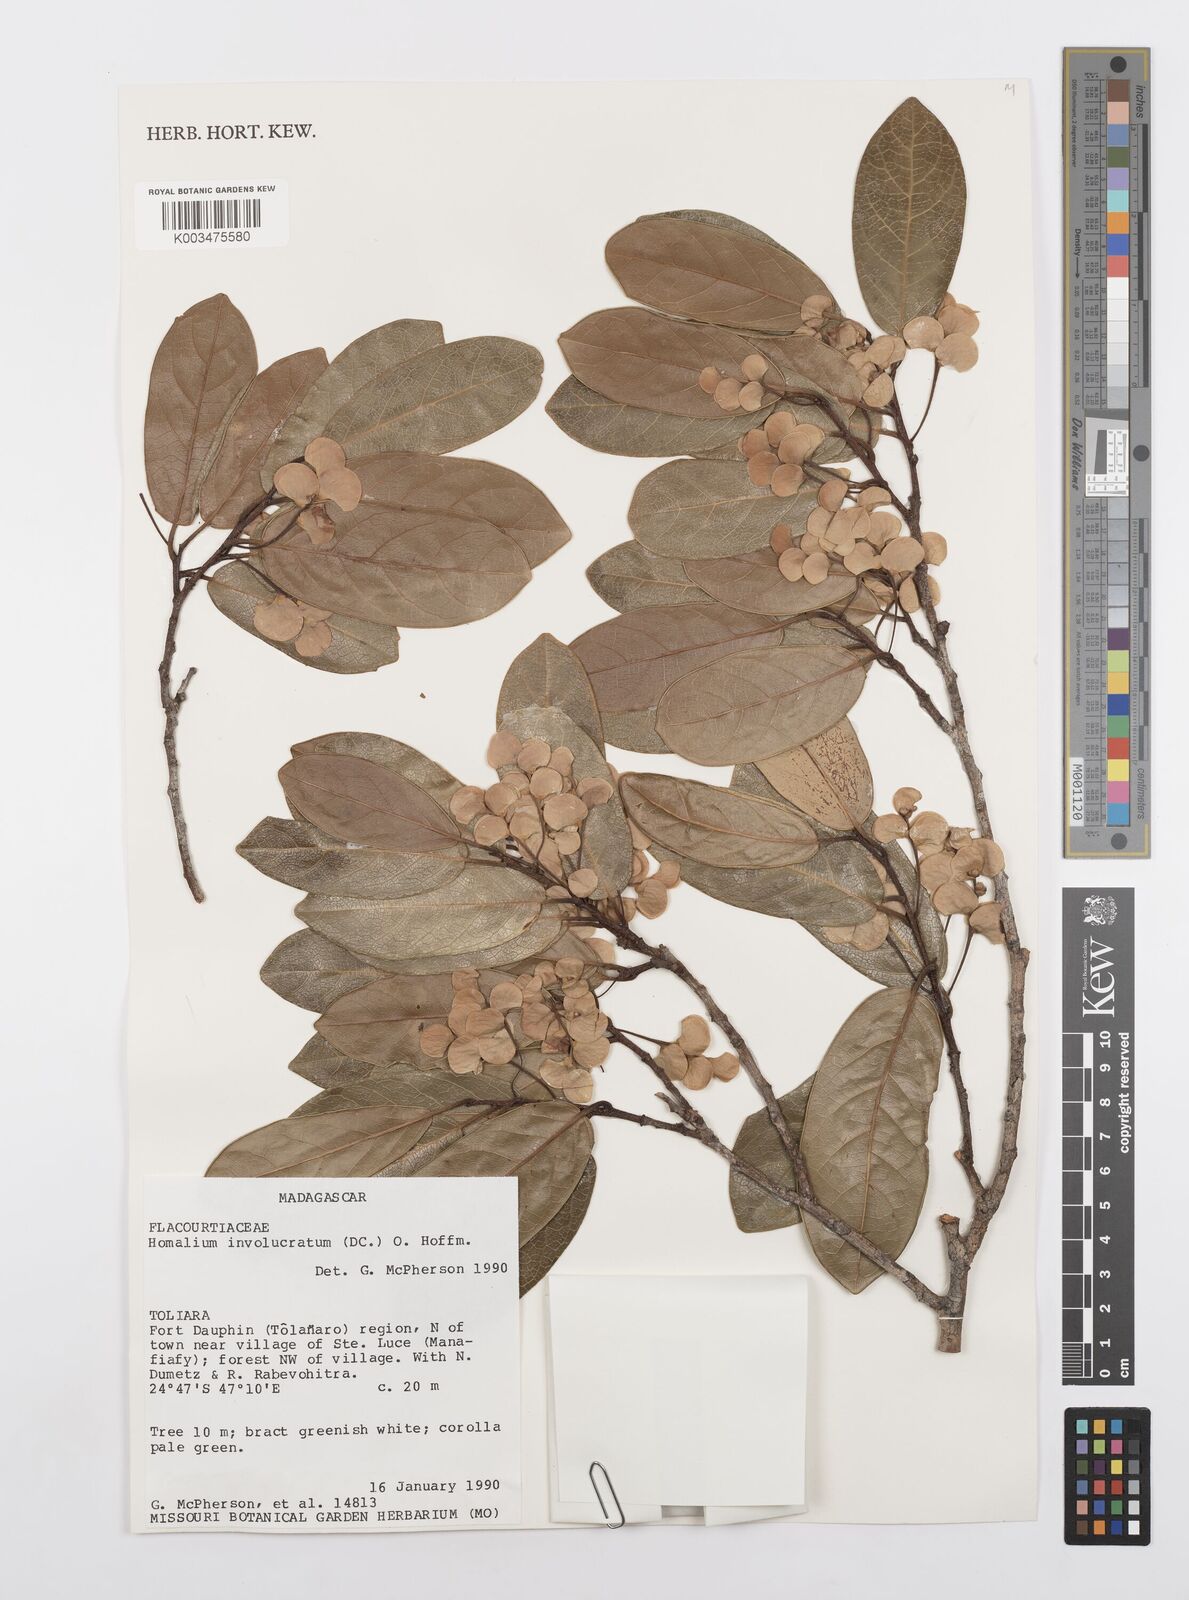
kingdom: Plantae
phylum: Tracheophyta
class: Magnoliopsida
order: Malpighiales
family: Salicaceae
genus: Homalium
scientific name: Homalium involucratum
